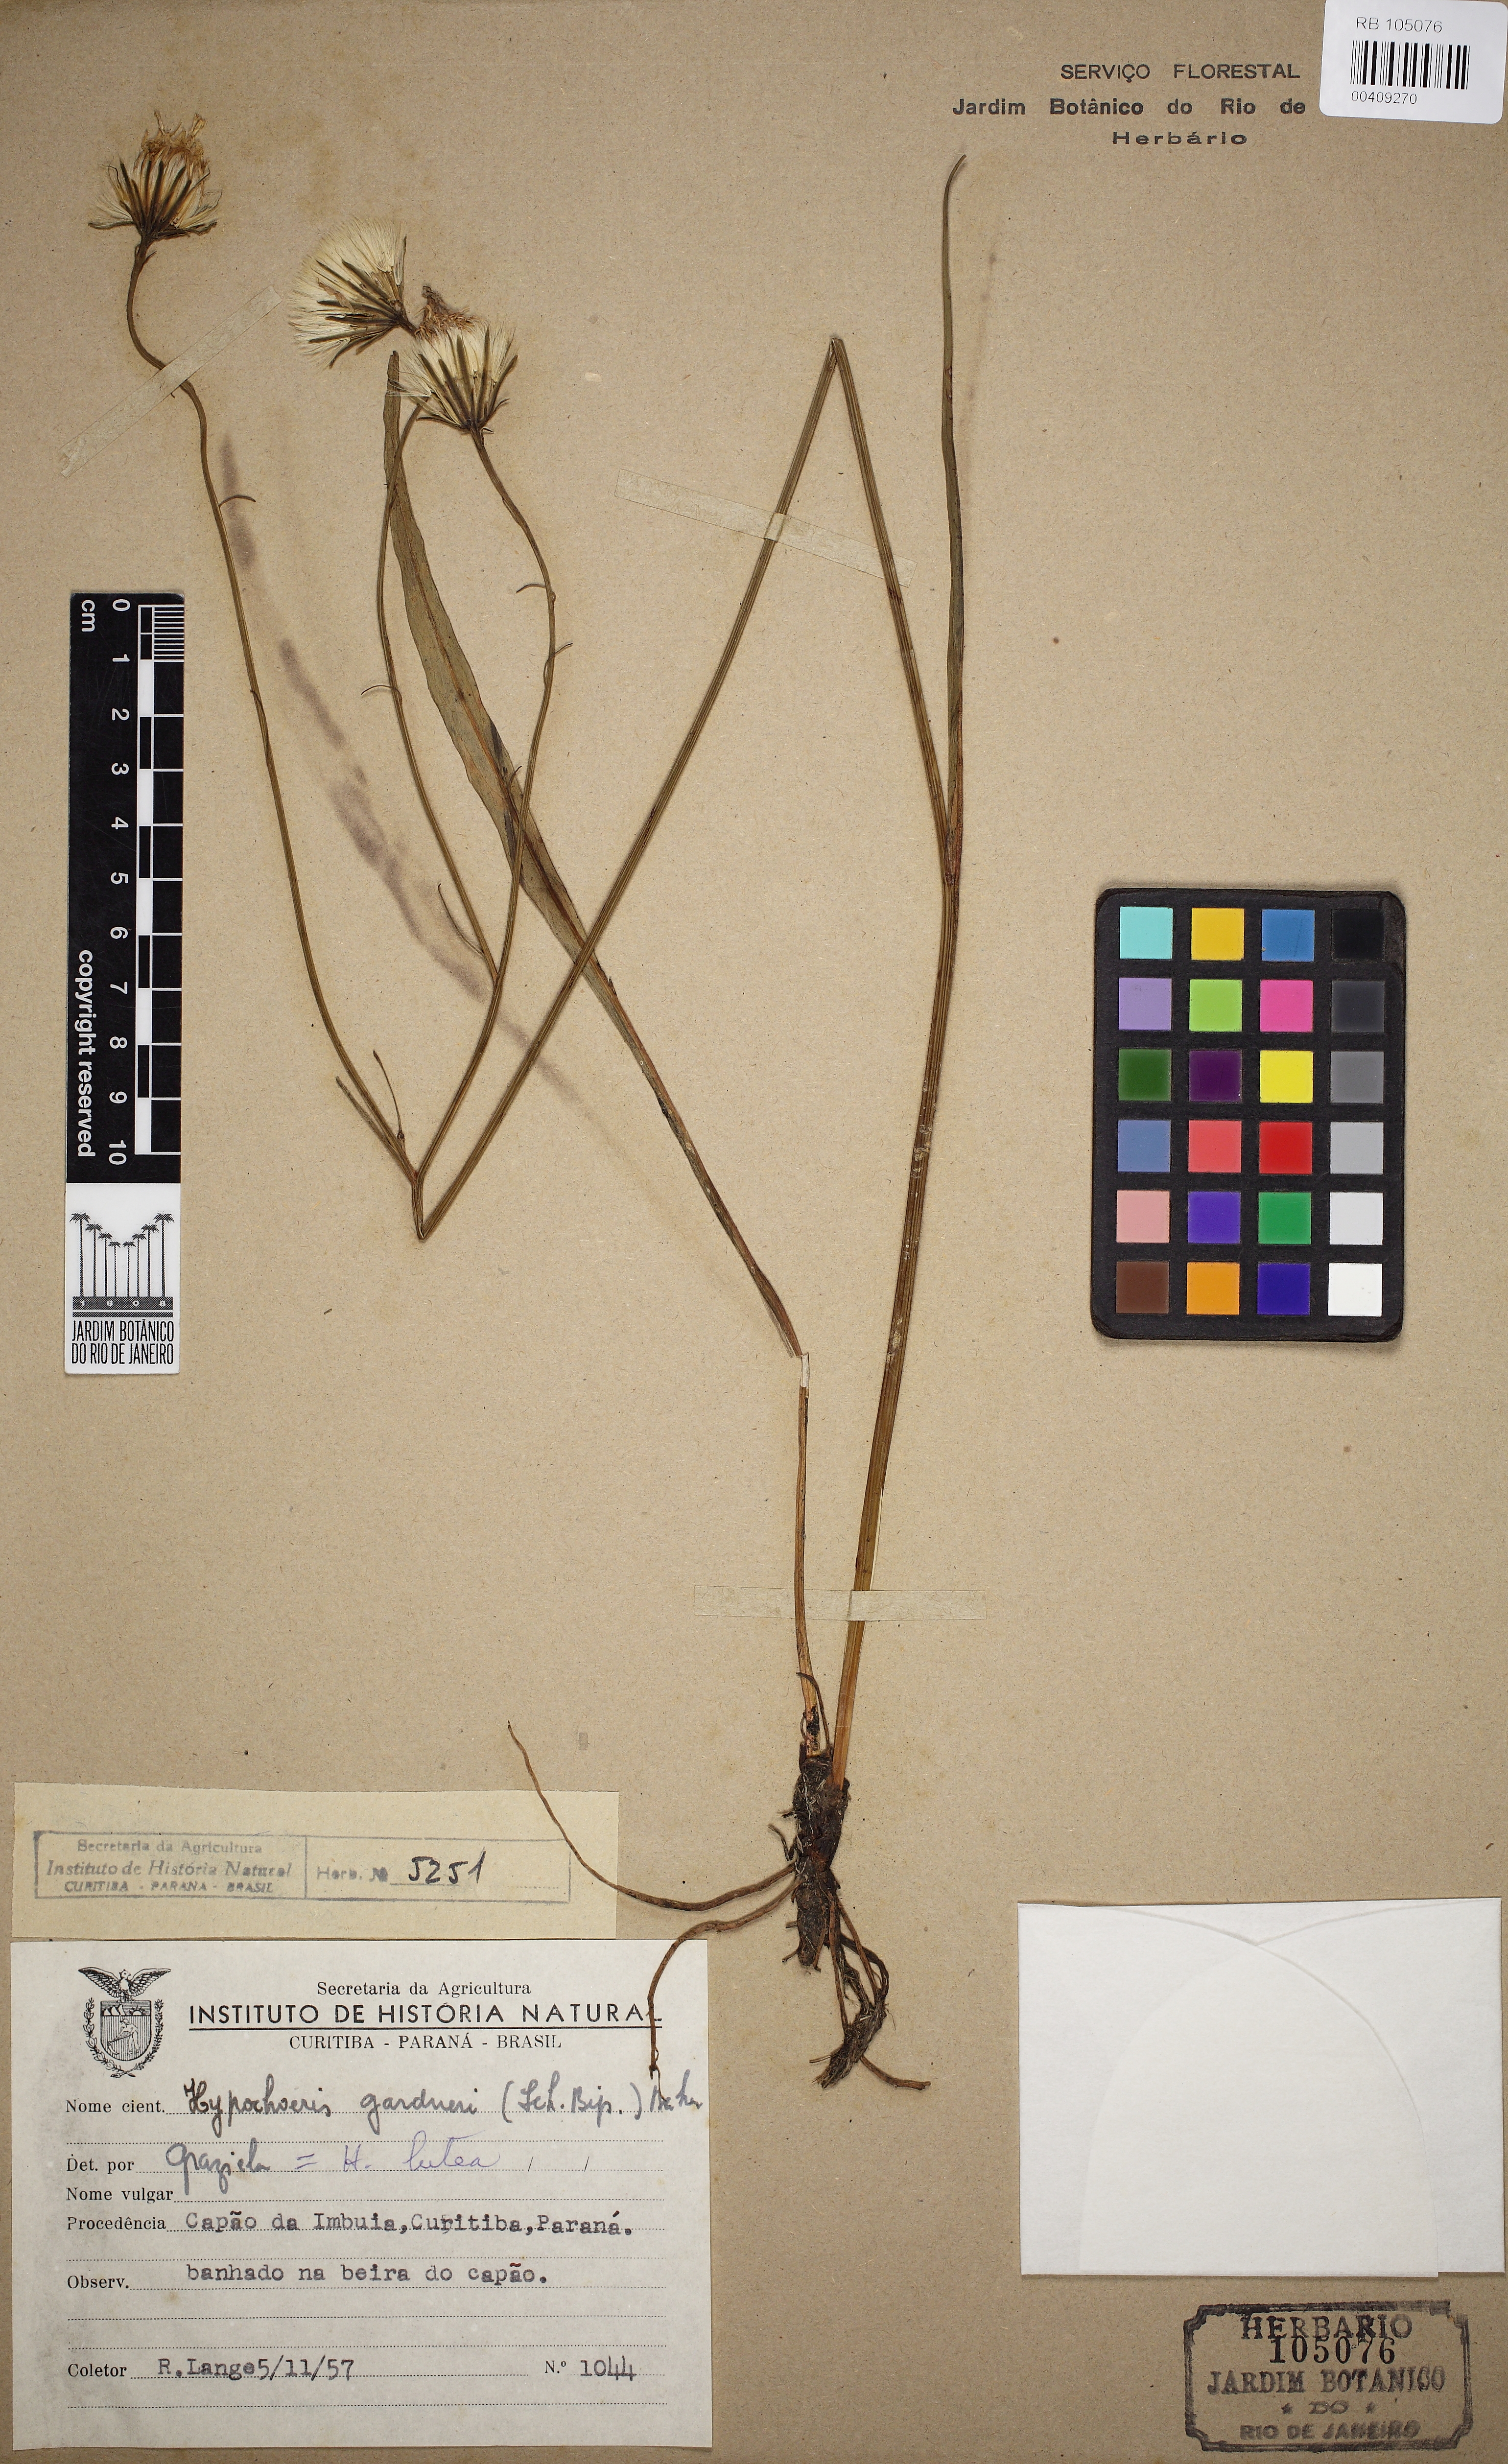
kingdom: Plantae
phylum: Tracheophyta
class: Magnoliopsida
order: Asterales
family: Asteraceae
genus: Hypochaeris
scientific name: Hypochaeris lutea
